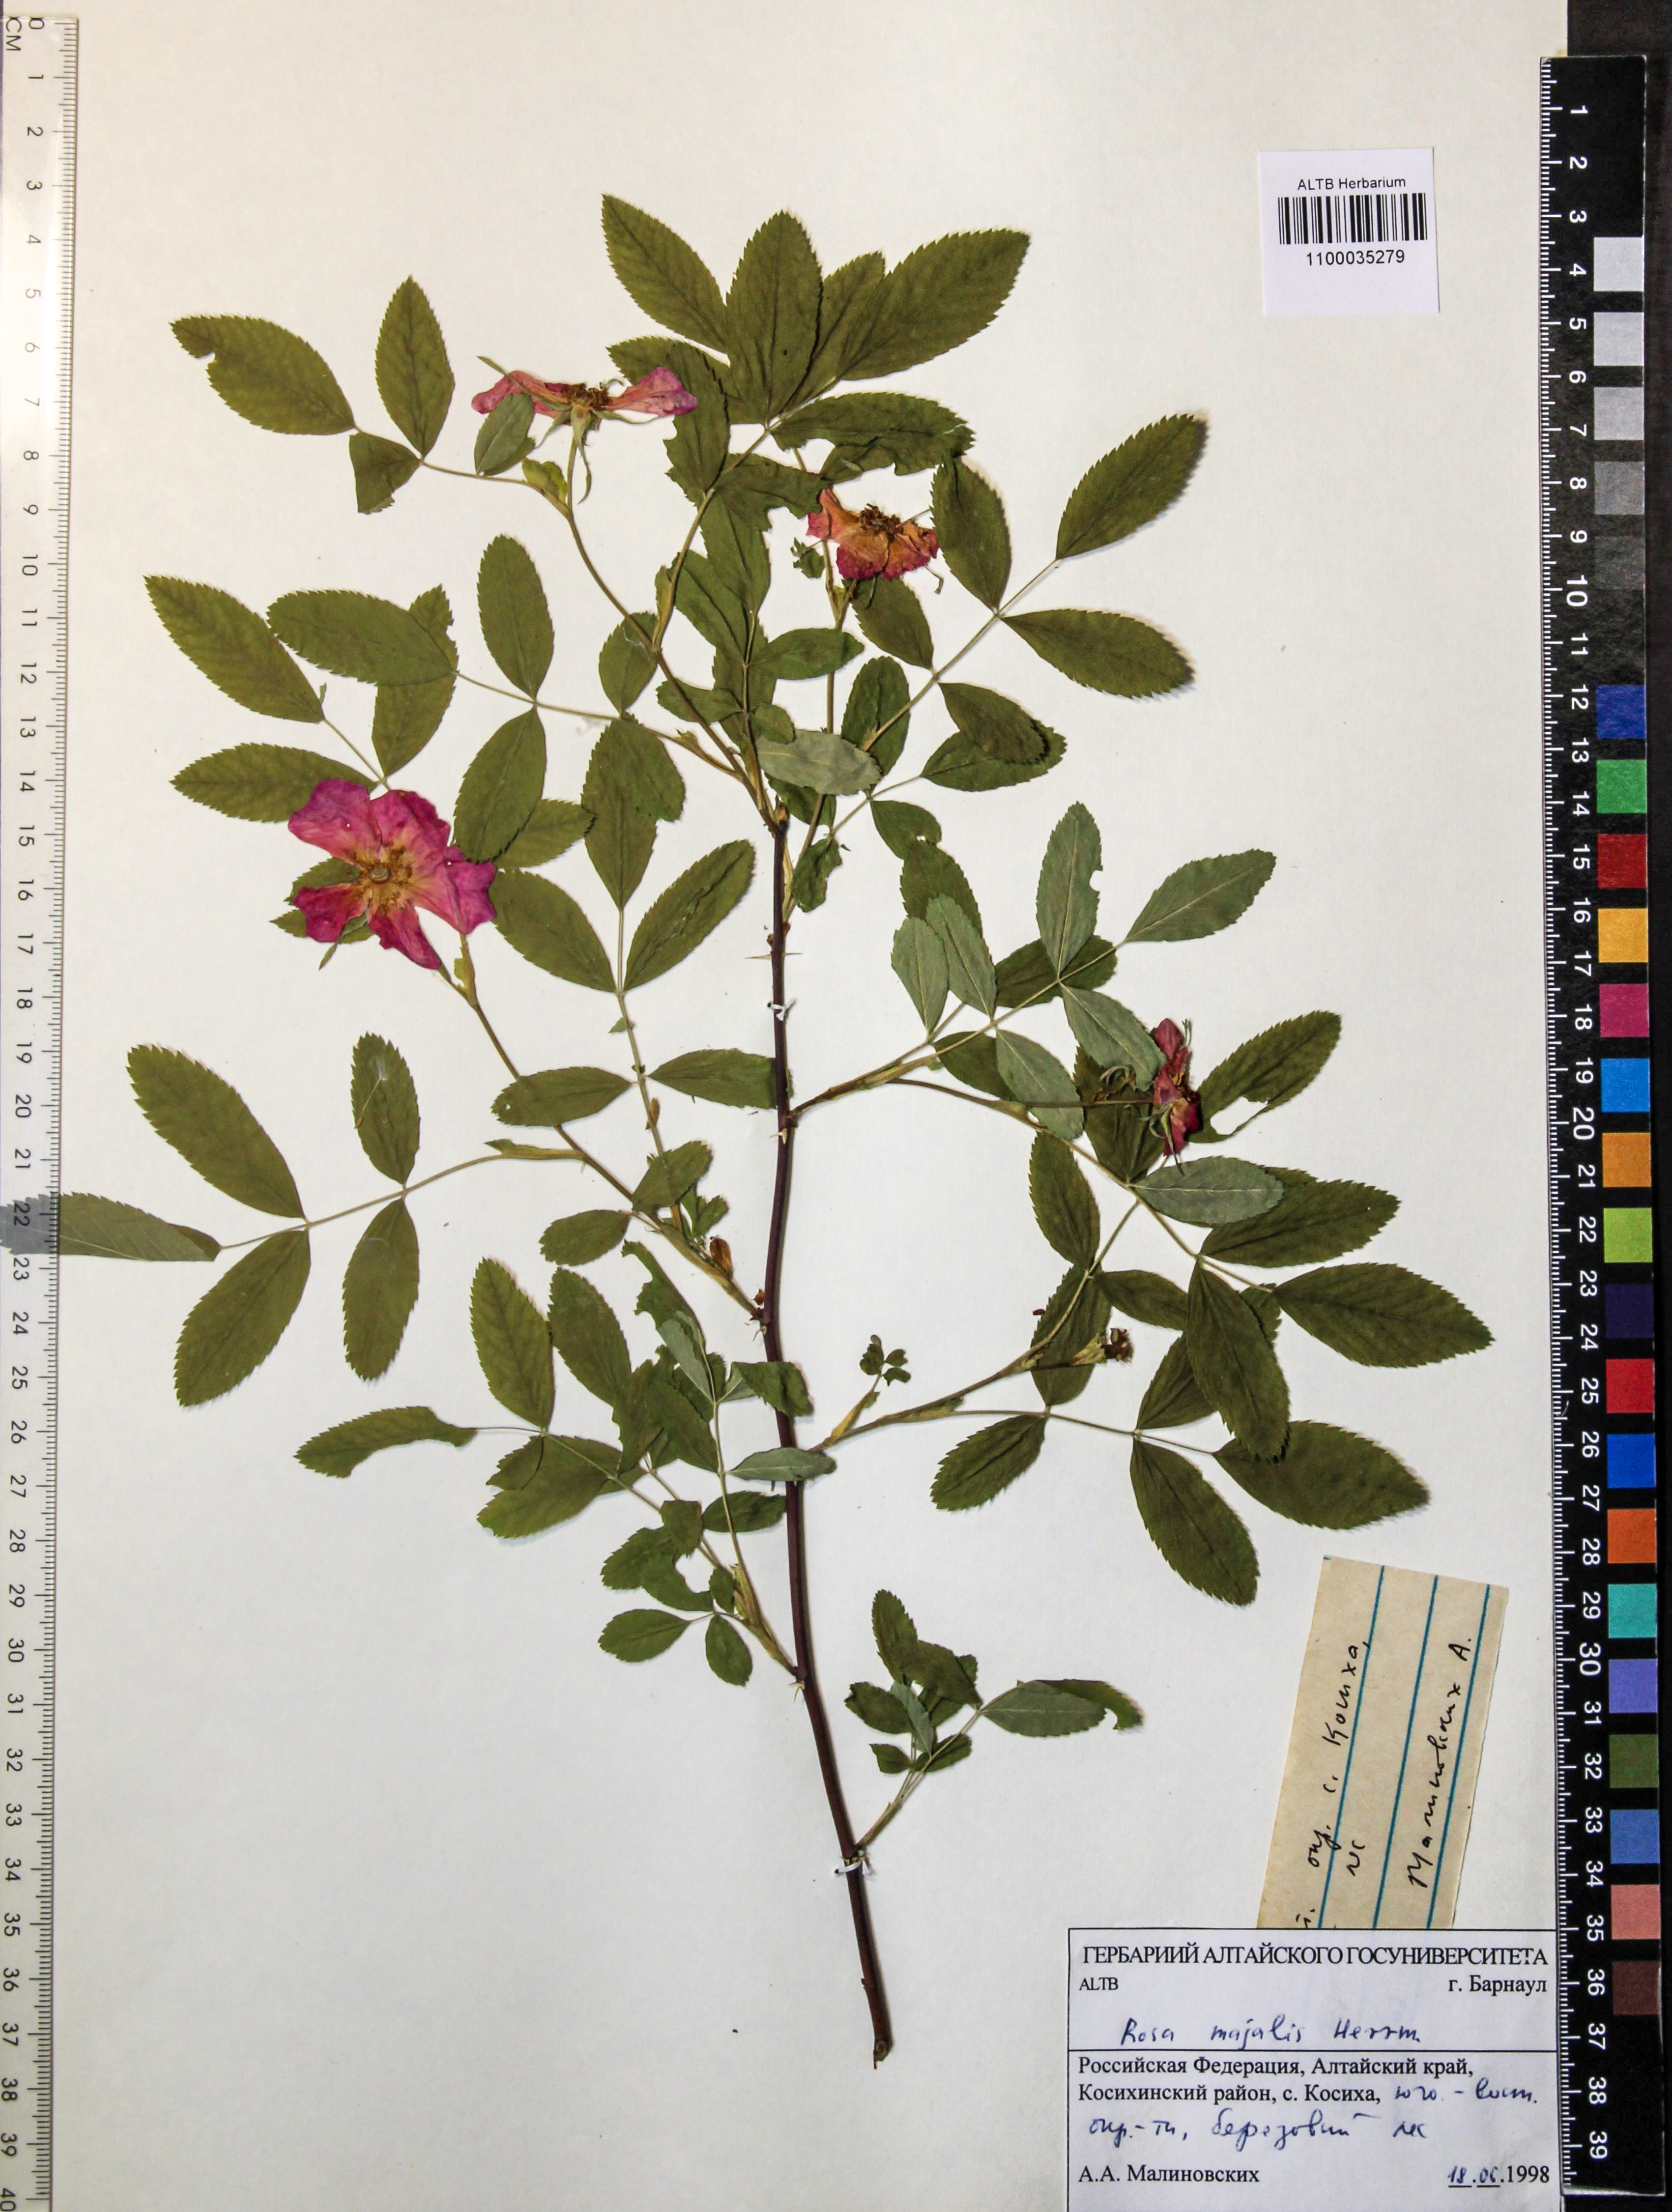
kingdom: Plantae
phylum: Tracheophyta
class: Magnoliopsida
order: Rosales
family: Rosaceae
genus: Rosa
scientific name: Rosa majalis
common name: Cinnamon rose
